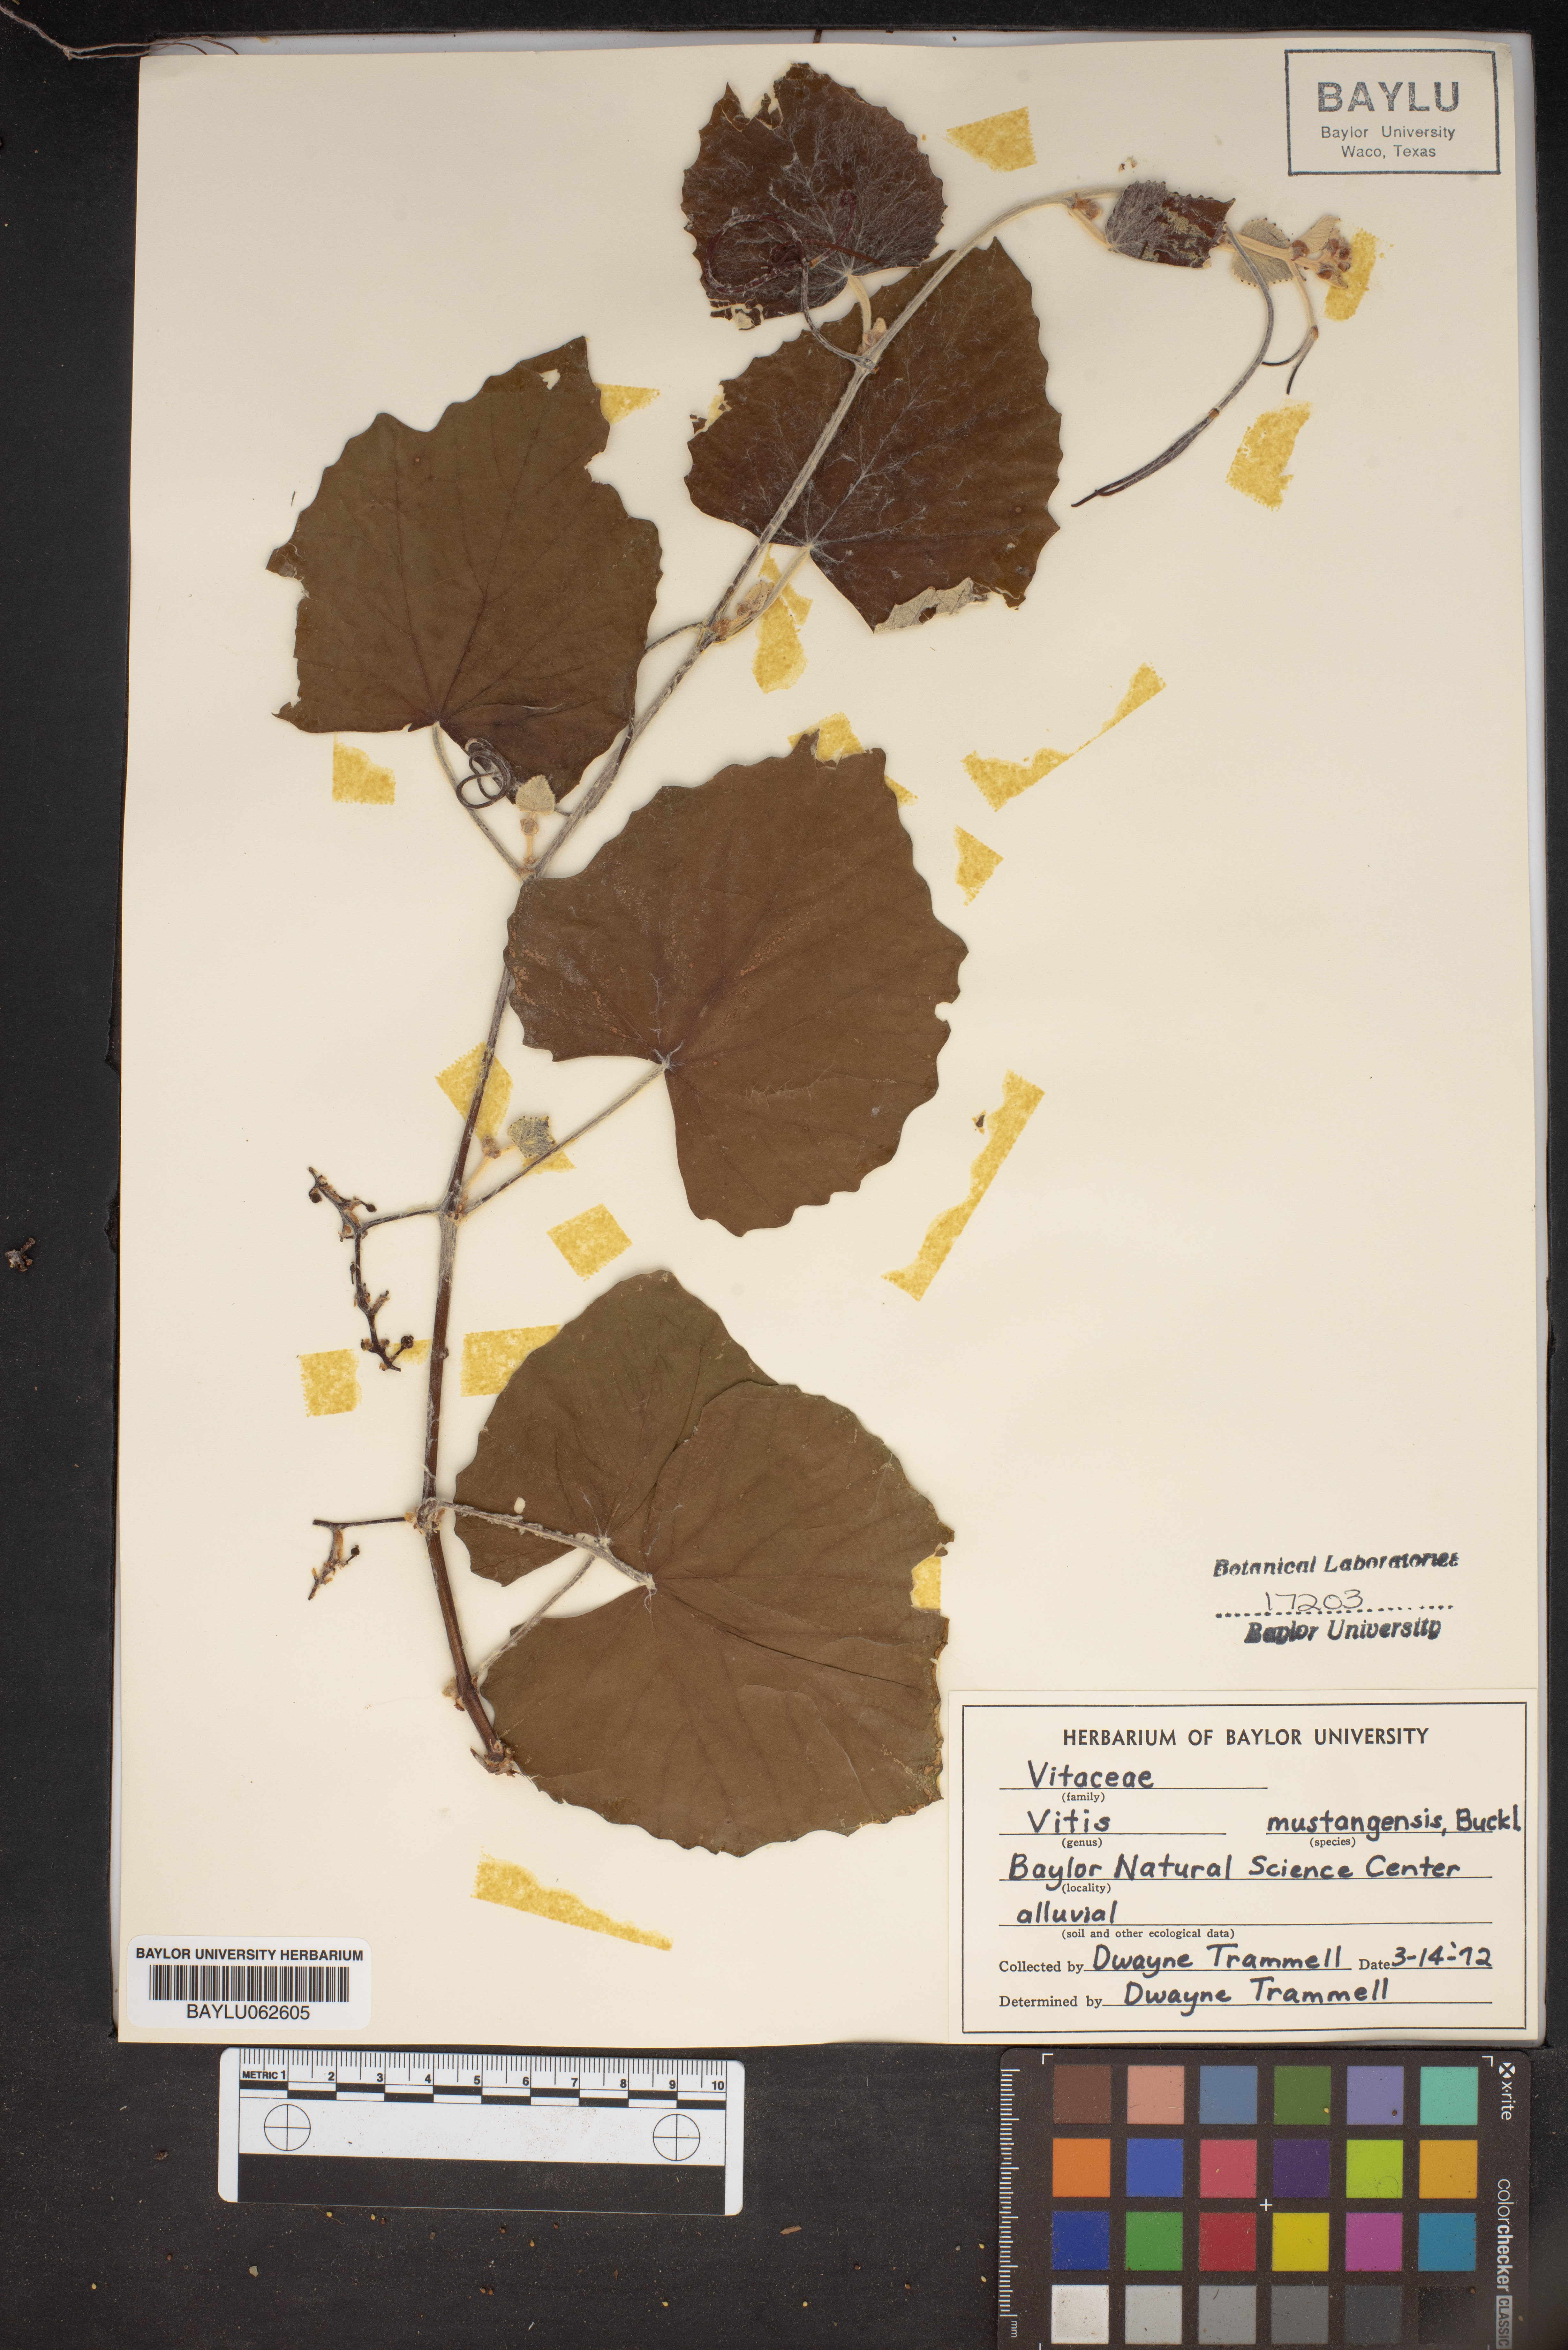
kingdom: Plantae
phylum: Tracheophyta
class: Magnoliopsida
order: Vitales
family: Vitaceae
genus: Vitis
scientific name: Vitis mustangensis
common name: Mustang grape
